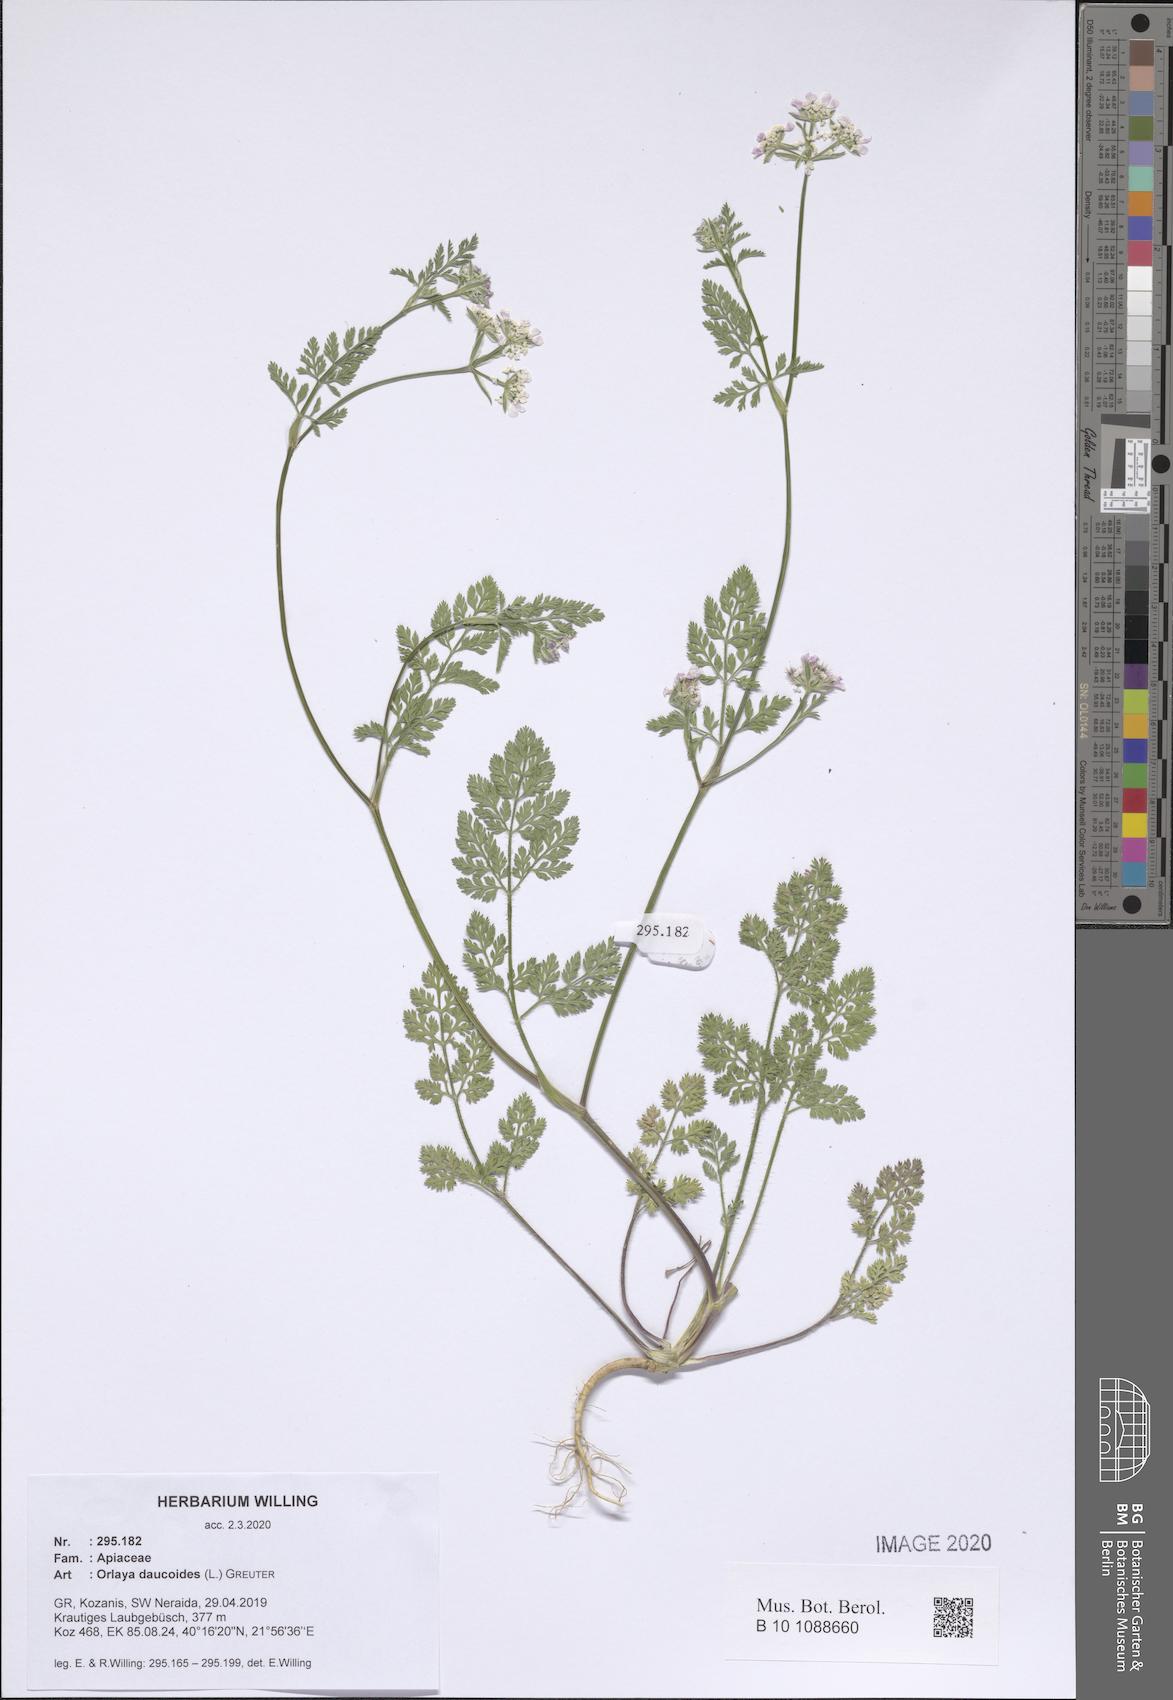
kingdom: Plantae
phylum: Tracheophyta
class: Magnoliopsida
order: Apiales
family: Apiaceae
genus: Orlaya
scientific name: Orlaya daucoides
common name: Flat-fruit orlaya
